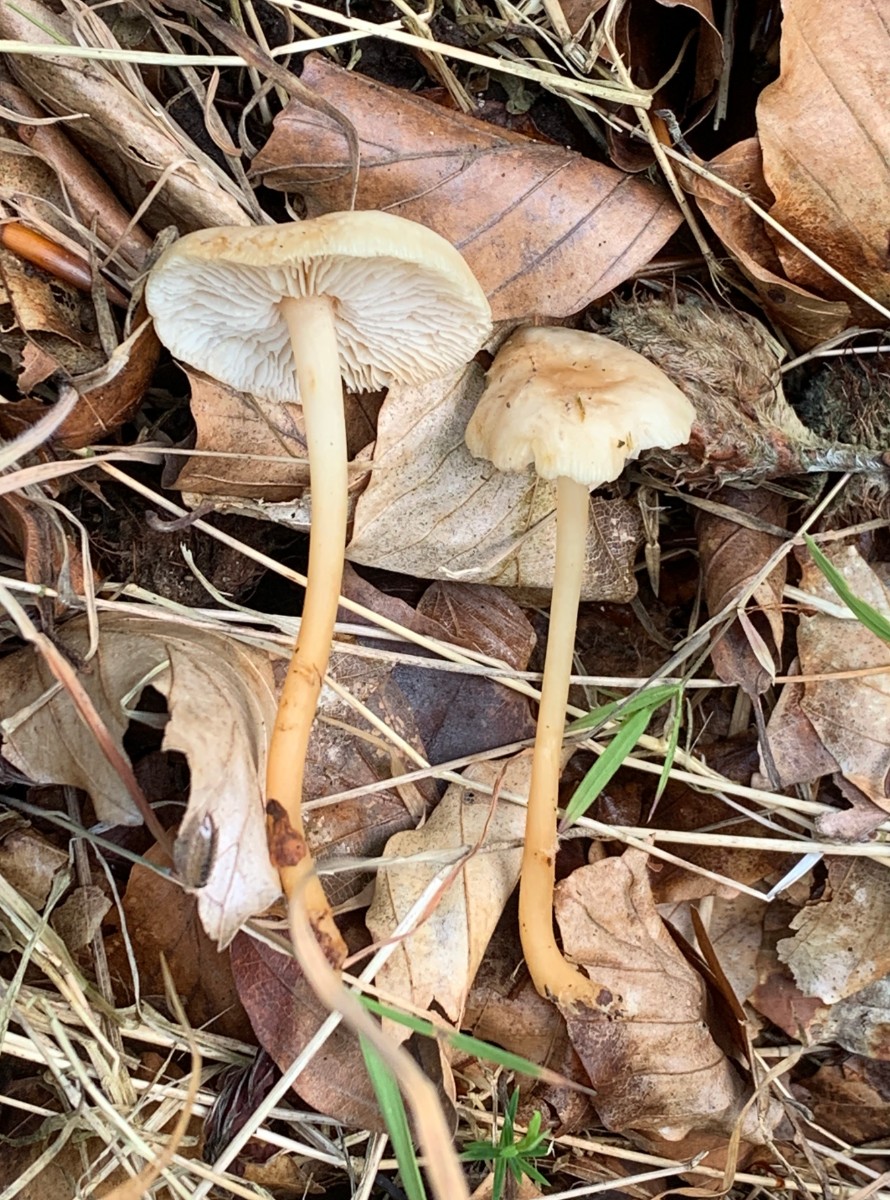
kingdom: Fungi
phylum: Basidiomycota
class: Agaricomycetes
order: Agaricales
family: Omphalotaceae
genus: Gymnopus
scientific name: Gymnopus dryophilus
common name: løv-fladhat
